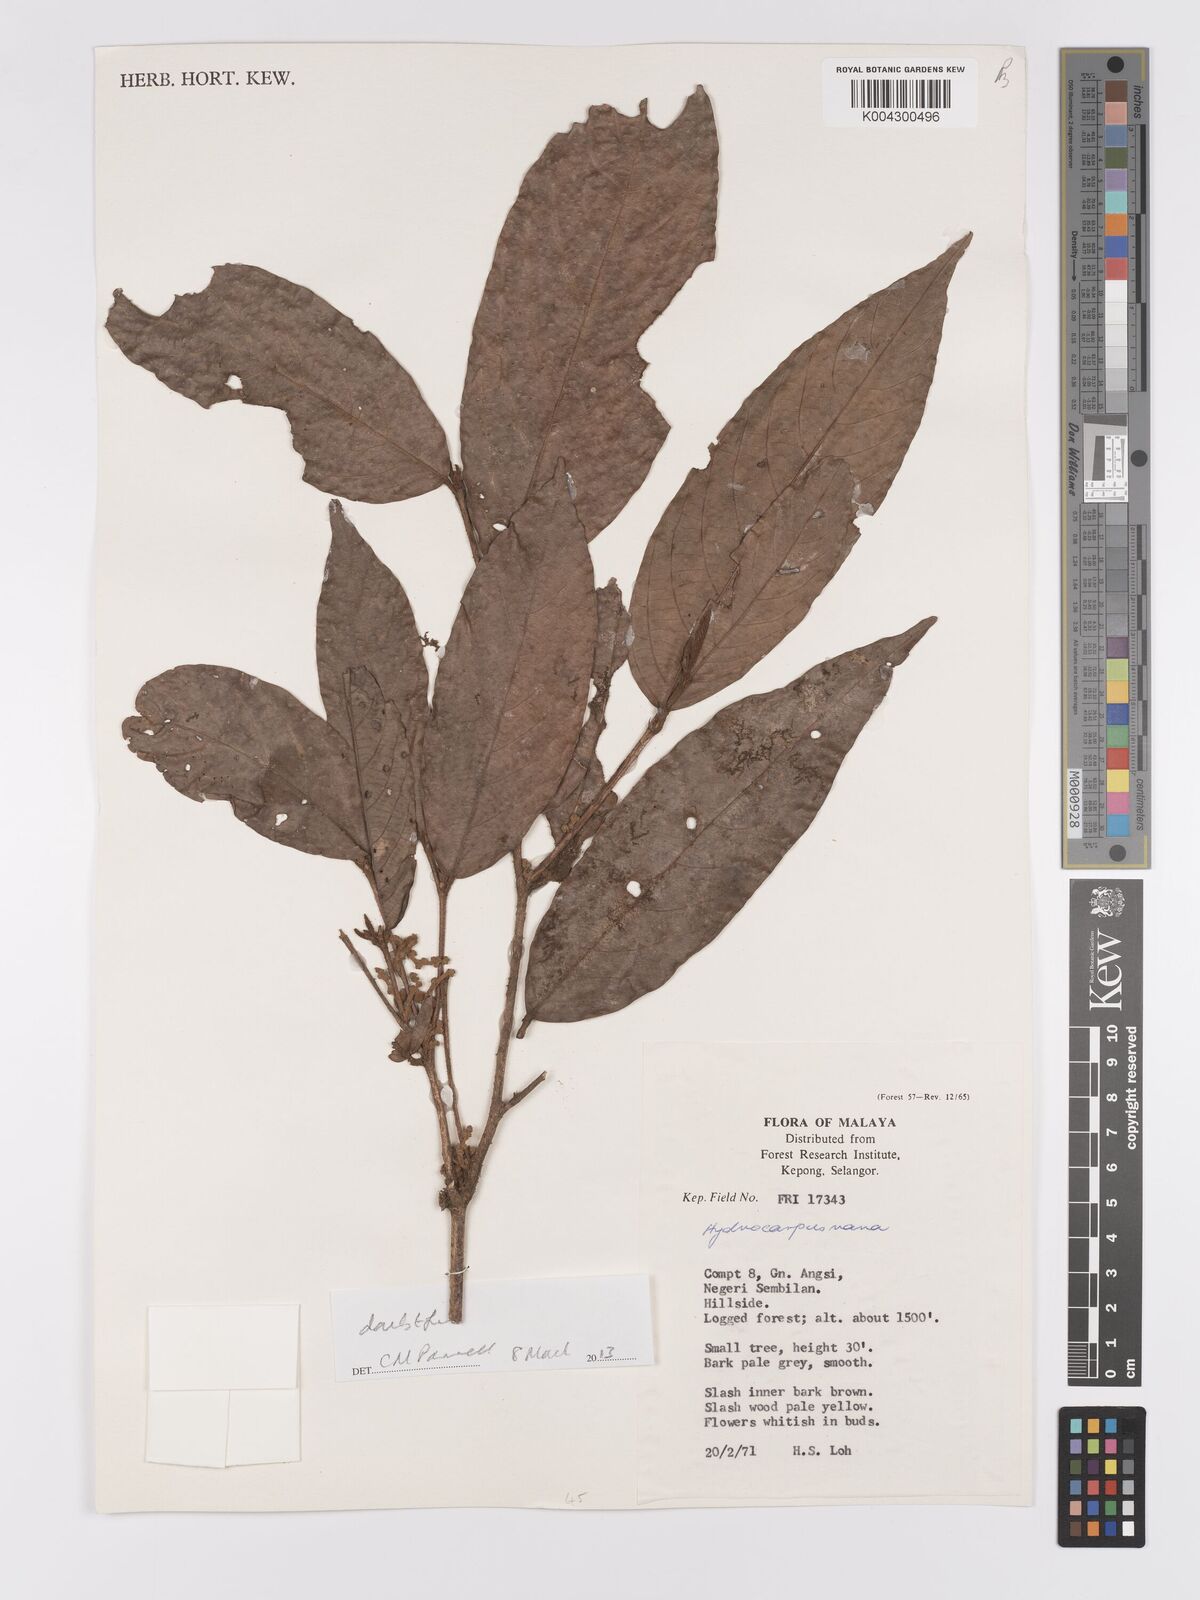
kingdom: Plantae
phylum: Tracheophyta
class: Magnoliopsida
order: Malpighiales
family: Achariaceae
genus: Hydnocarpus
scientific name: Hydnocarpus nanus
